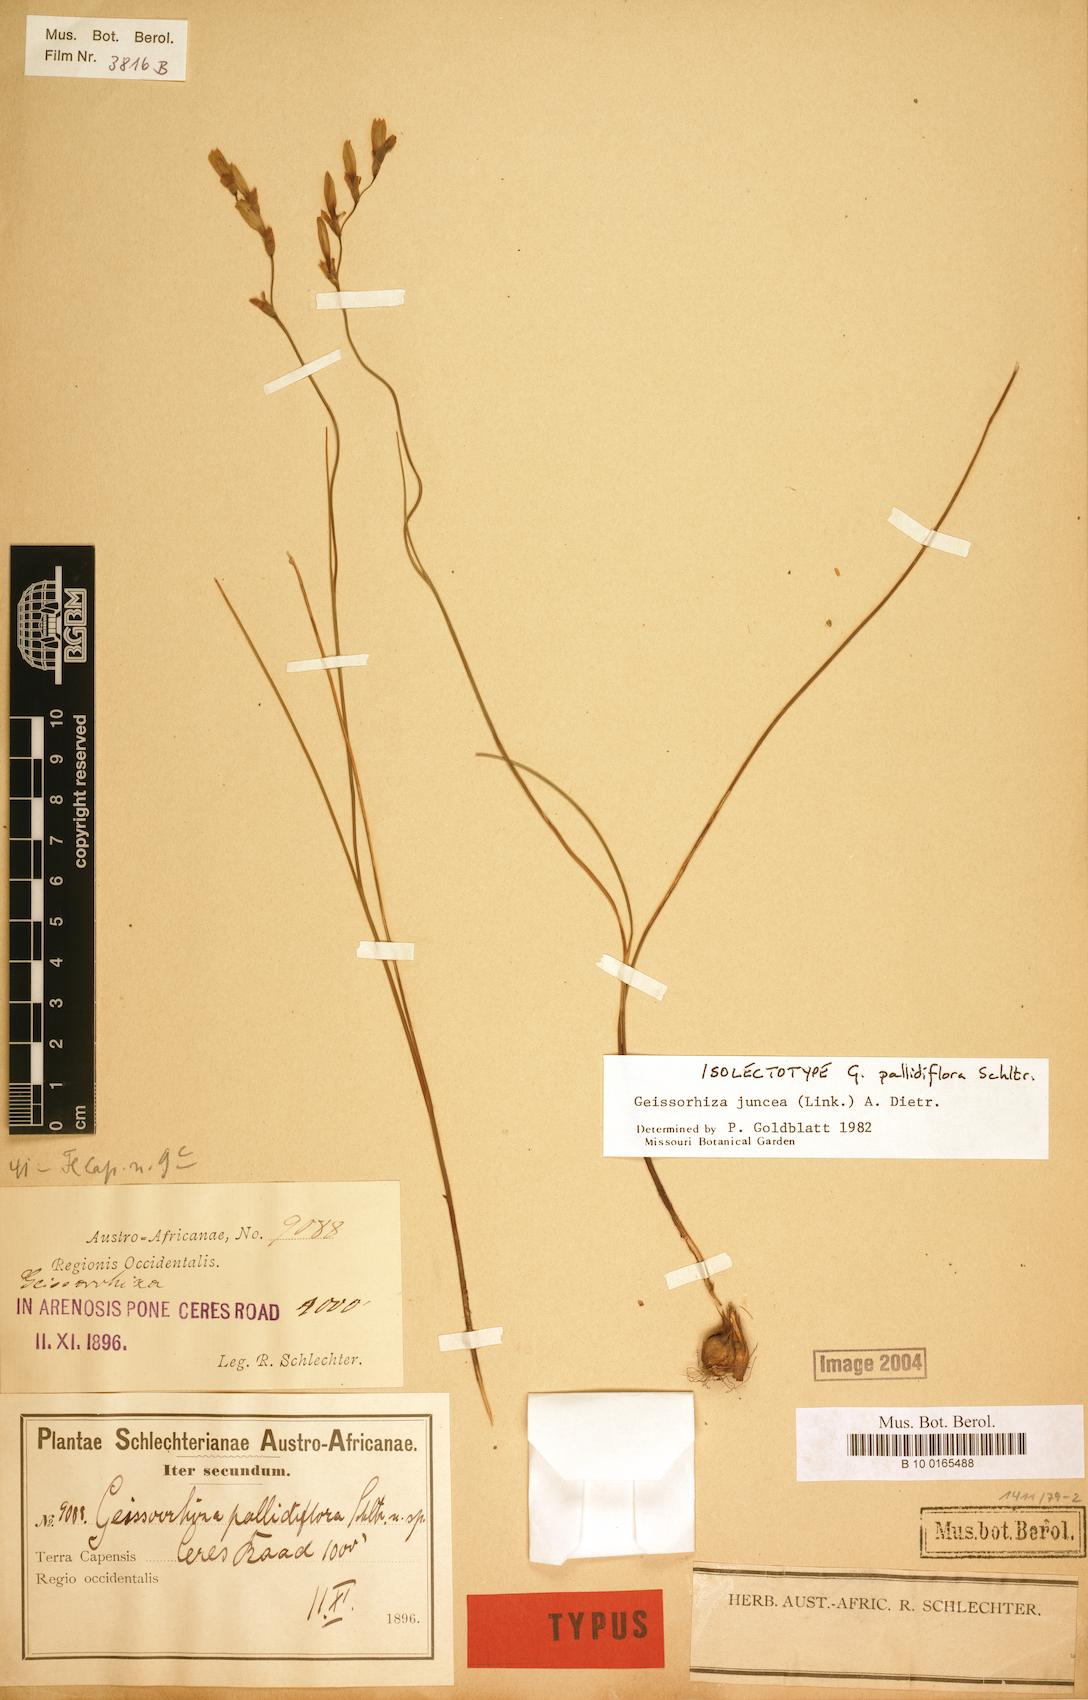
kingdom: Plantae
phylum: Tracheophyta
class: Liliopsida
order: Asparagales
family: Iridaceae
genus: Geissorhiza
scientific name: Geissorhiza juncea
